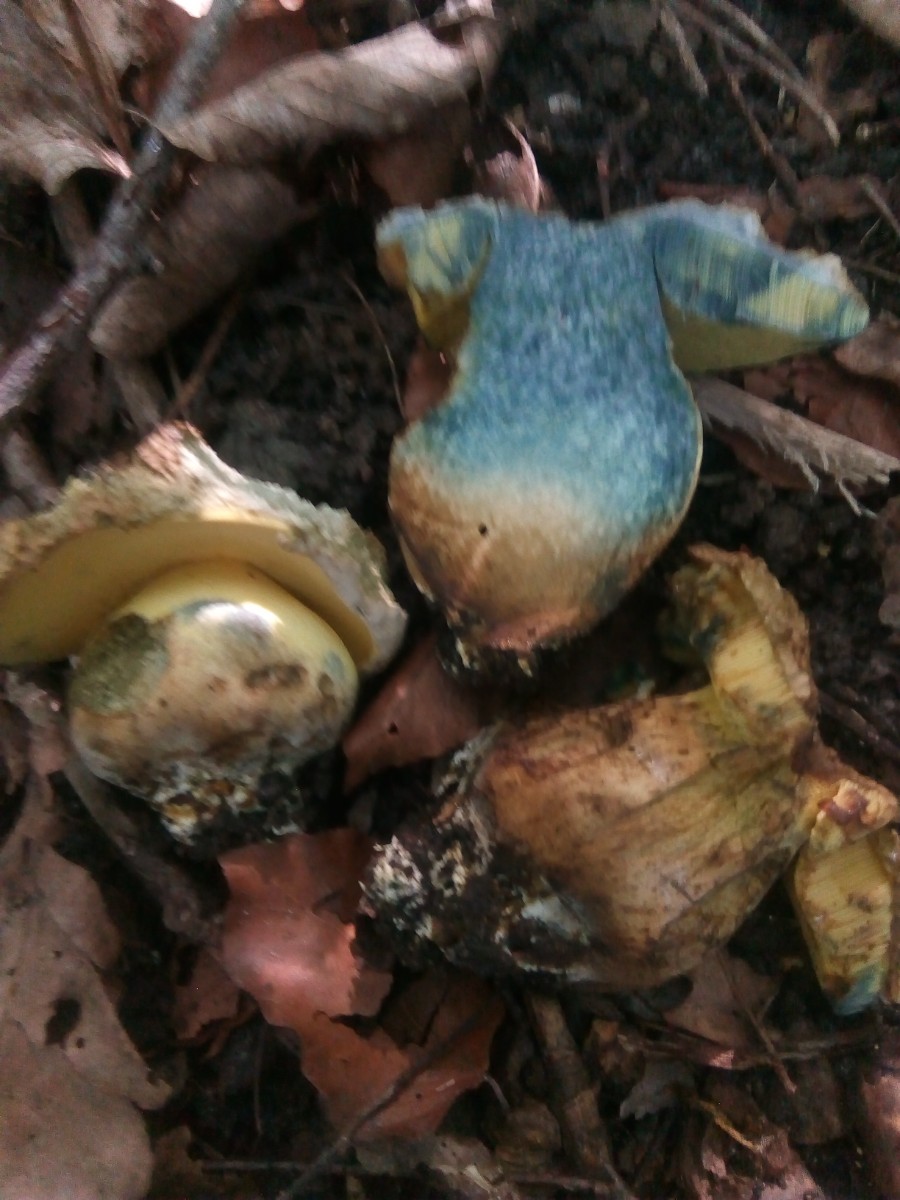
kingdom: Fungi
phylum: Basidiomycota
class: Agaricomycetes
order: Boletales
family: Boletaceae
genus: Caloboletus
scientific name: Caloboletus radicans
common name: rod-rørhat
